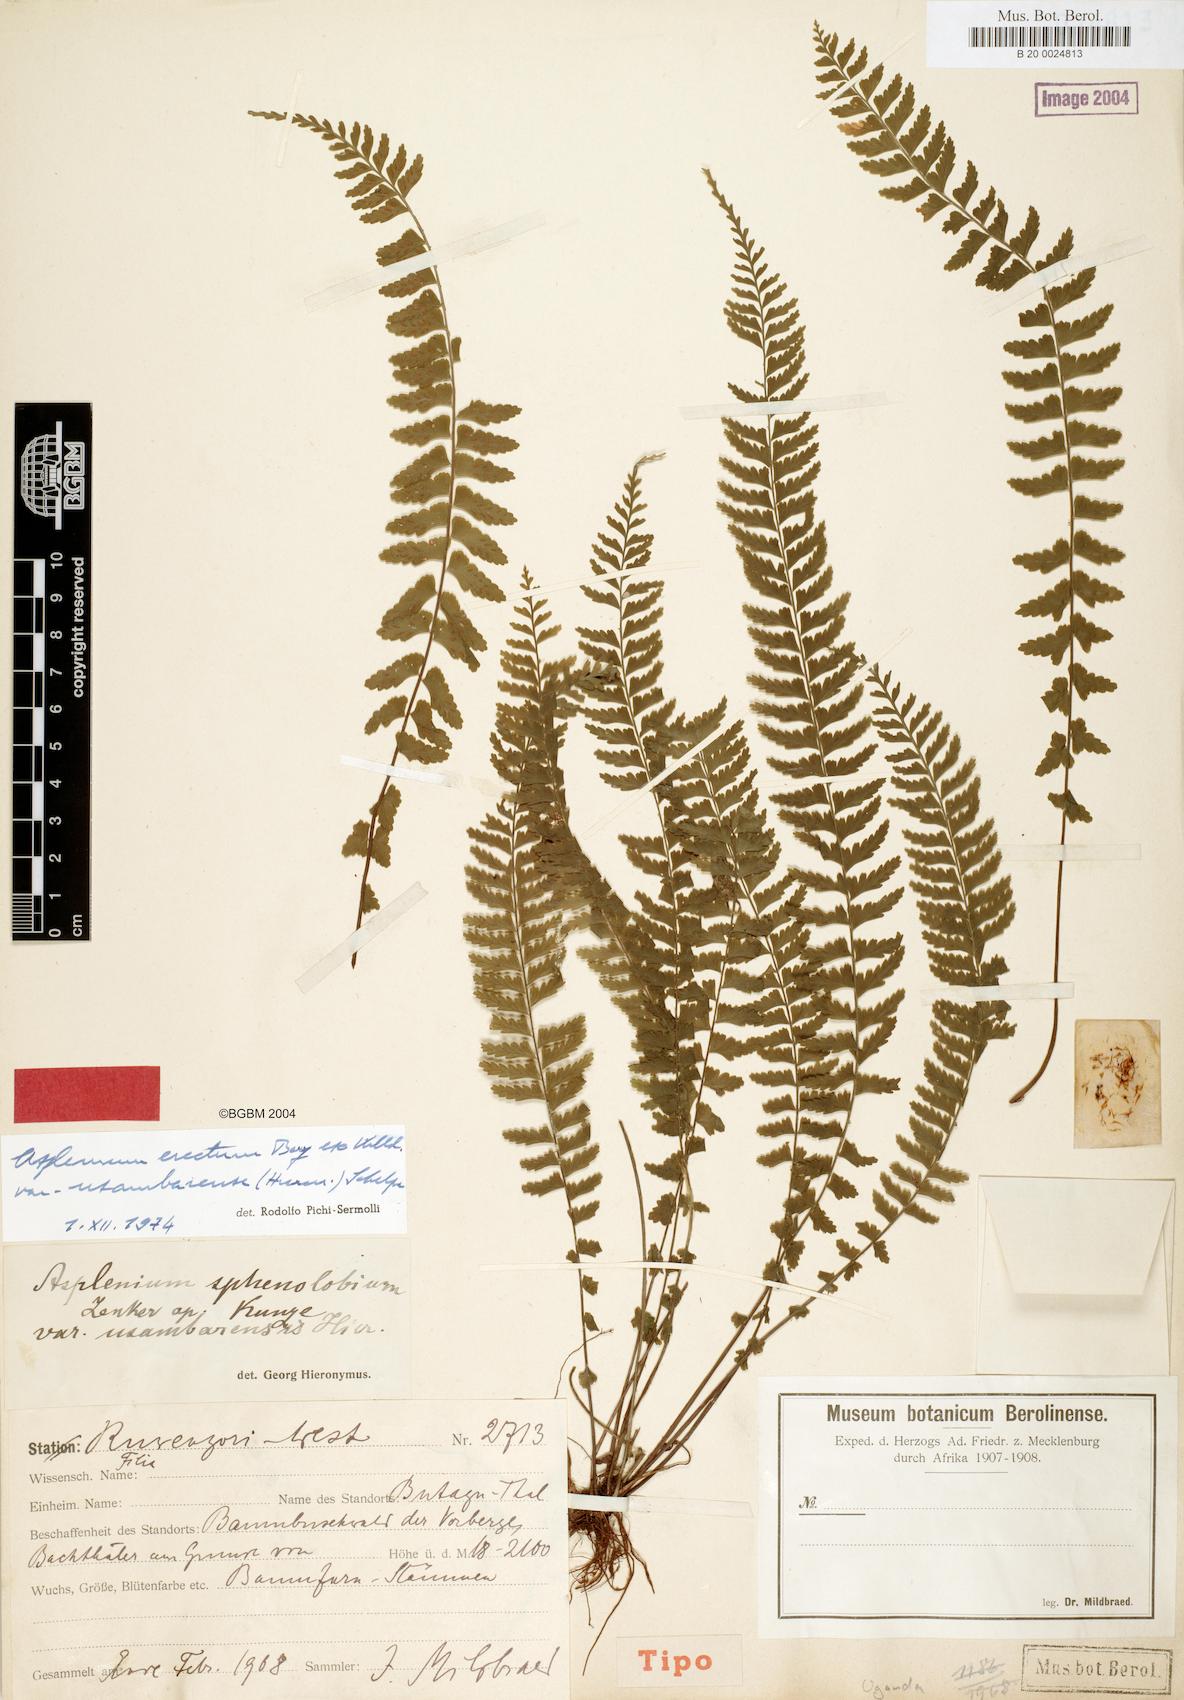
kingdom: Plantae
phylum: Tracheophyta
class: Polypodiopsida
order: Polypodiales
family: Aspleniaceae
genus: Asplenium
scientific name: Asplenium erectum
